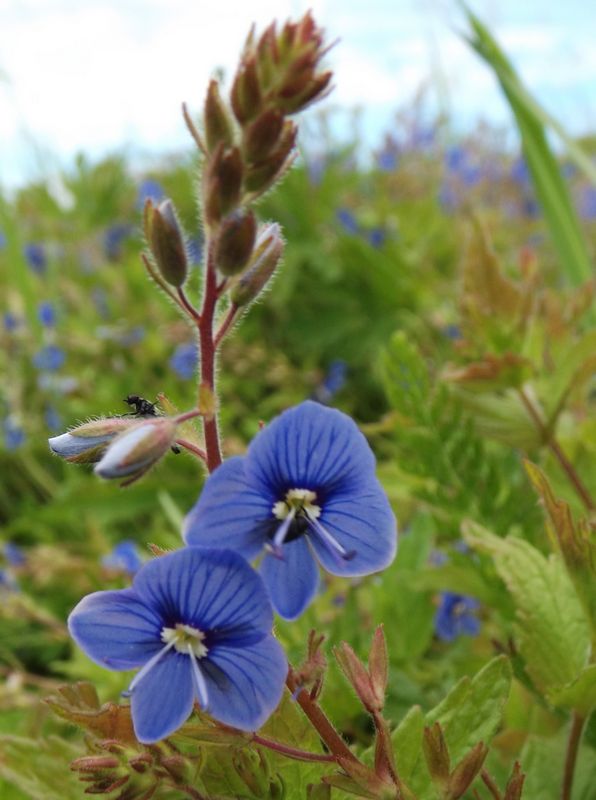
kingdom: Plantae
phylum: Tracheophyta
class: Magnoliopsida
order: Lamiales
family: Plantaginaceae
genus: Veronica
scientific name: Veronica chamaedrys
